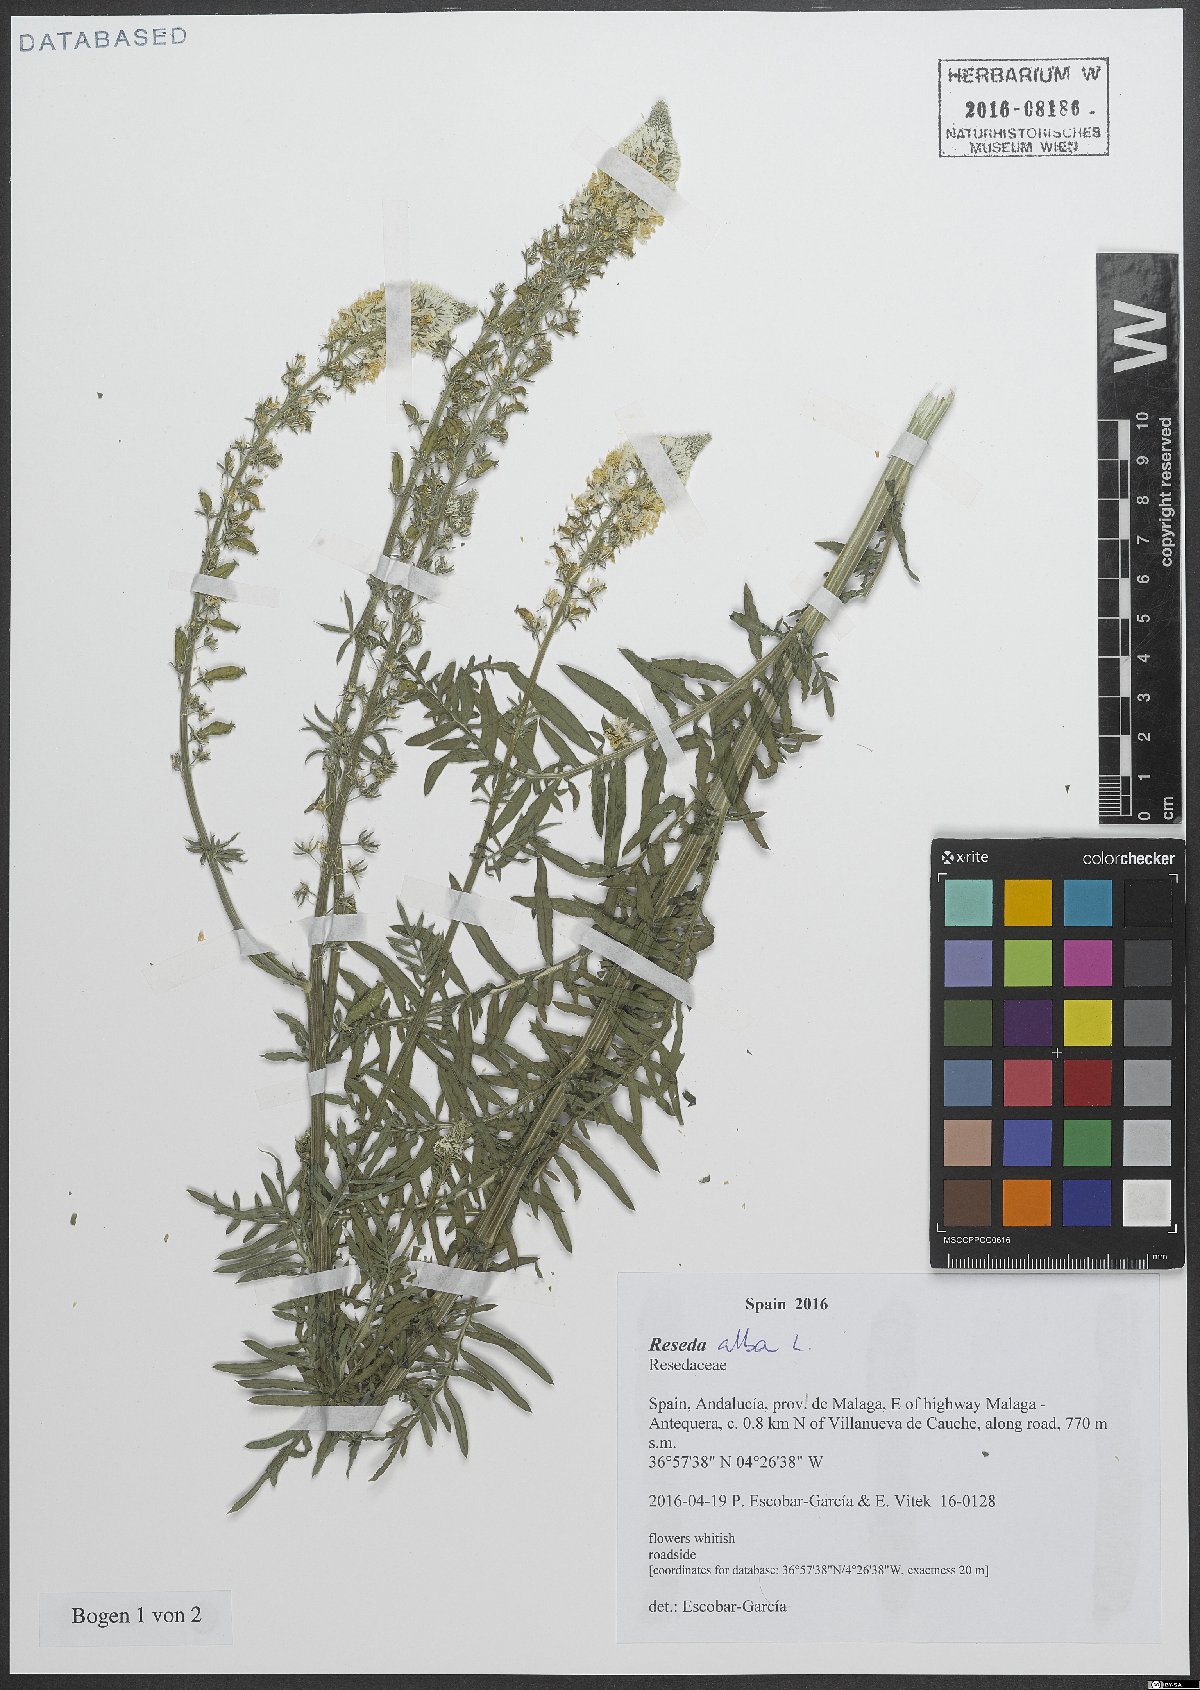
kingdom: Plantae
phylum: Tracheophyta
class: Magnoliopsida
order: Brassicales
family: Resedaceae
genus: Reseda
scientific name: Reseda alba
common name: White mignonette
